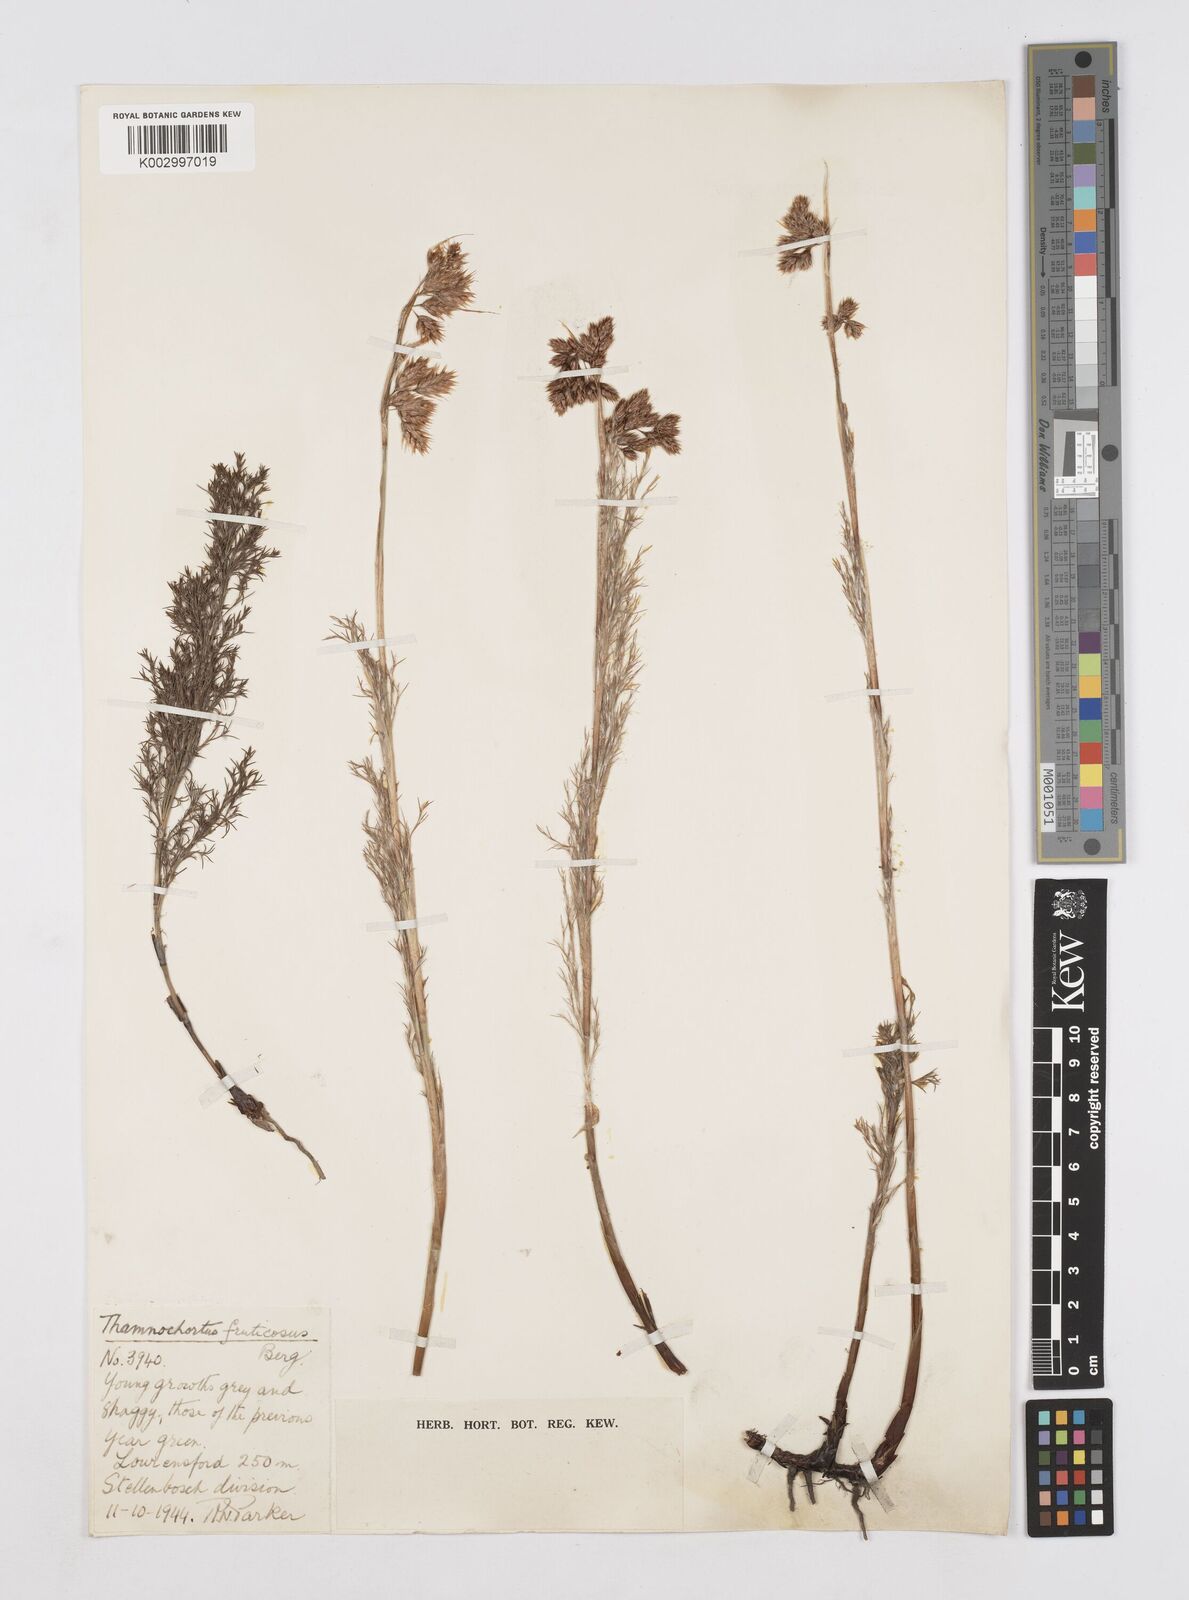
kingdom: Plantae
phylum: Tracheophyta
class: Liliopsida
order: Poales
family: Restionaceae
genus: Thamnochortus
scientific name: Thamnochortus fruticosus
